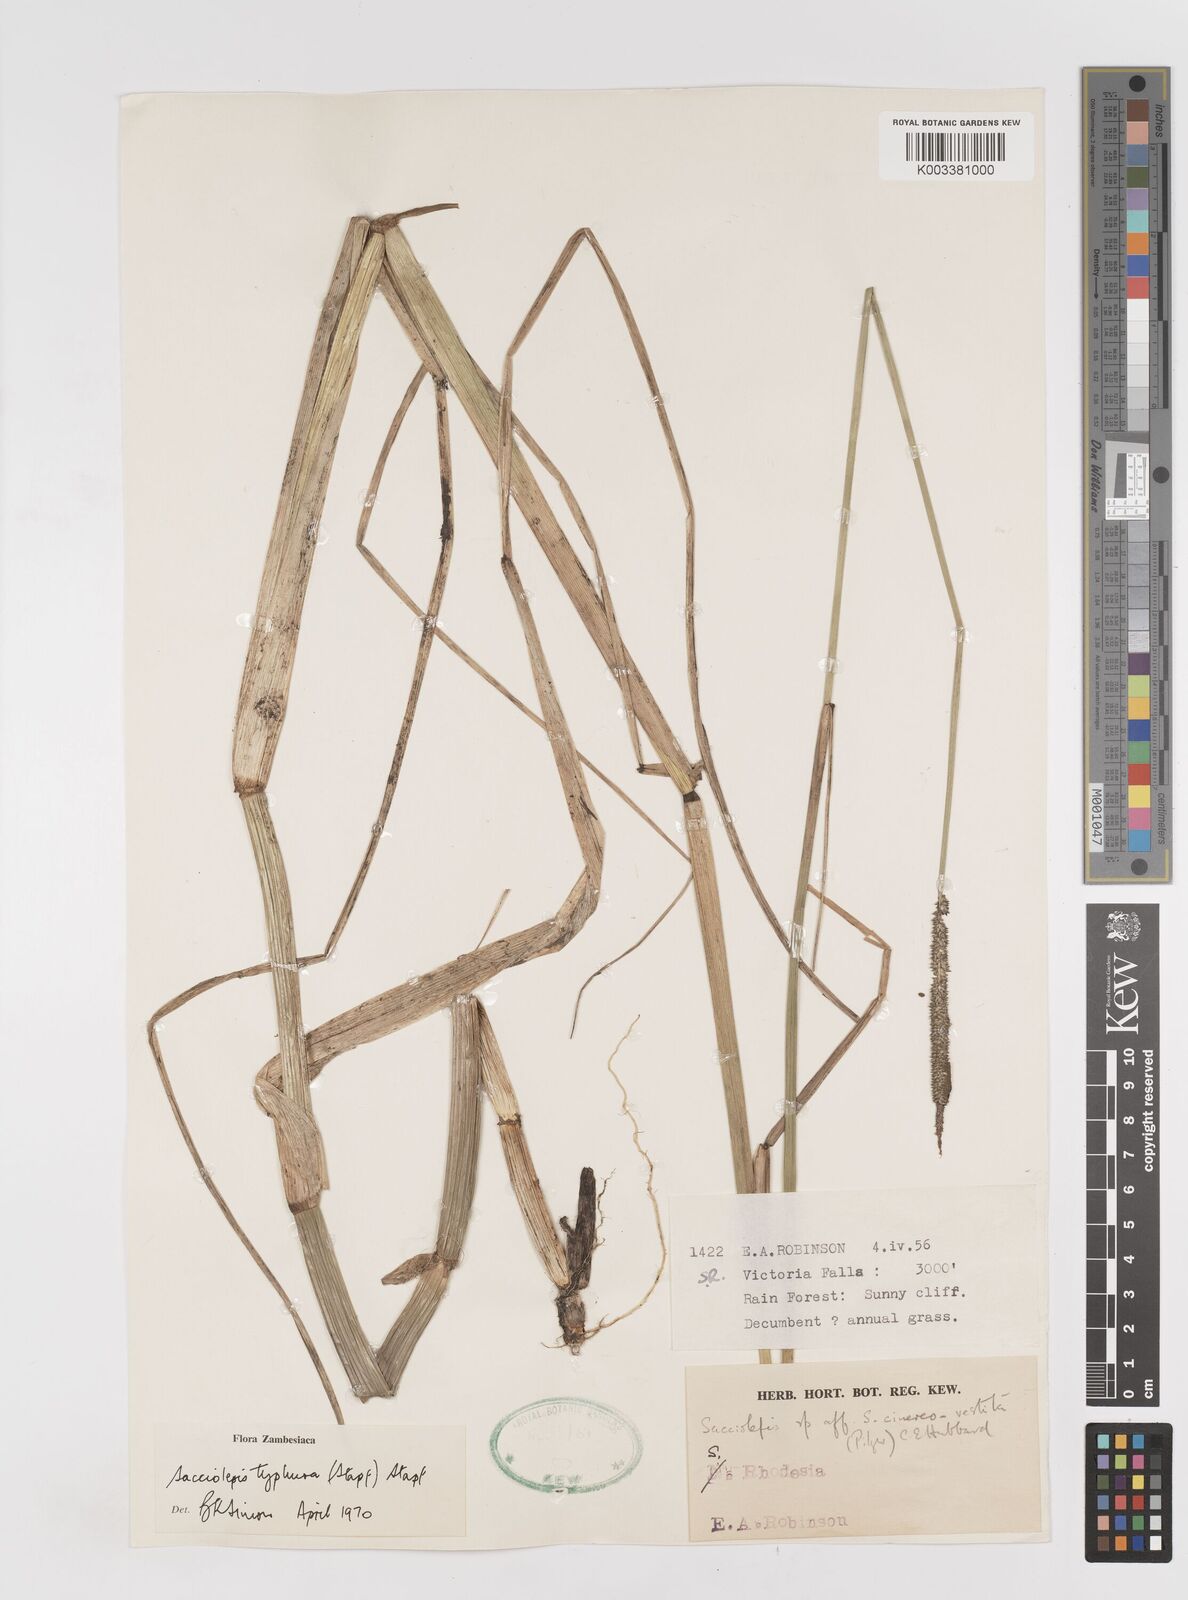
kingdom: Plantae
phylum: Tracheophyta
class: Liliopsida
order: Poales
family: Poaceae
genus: Sacciolepis
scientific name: Sacciolepis typhura
